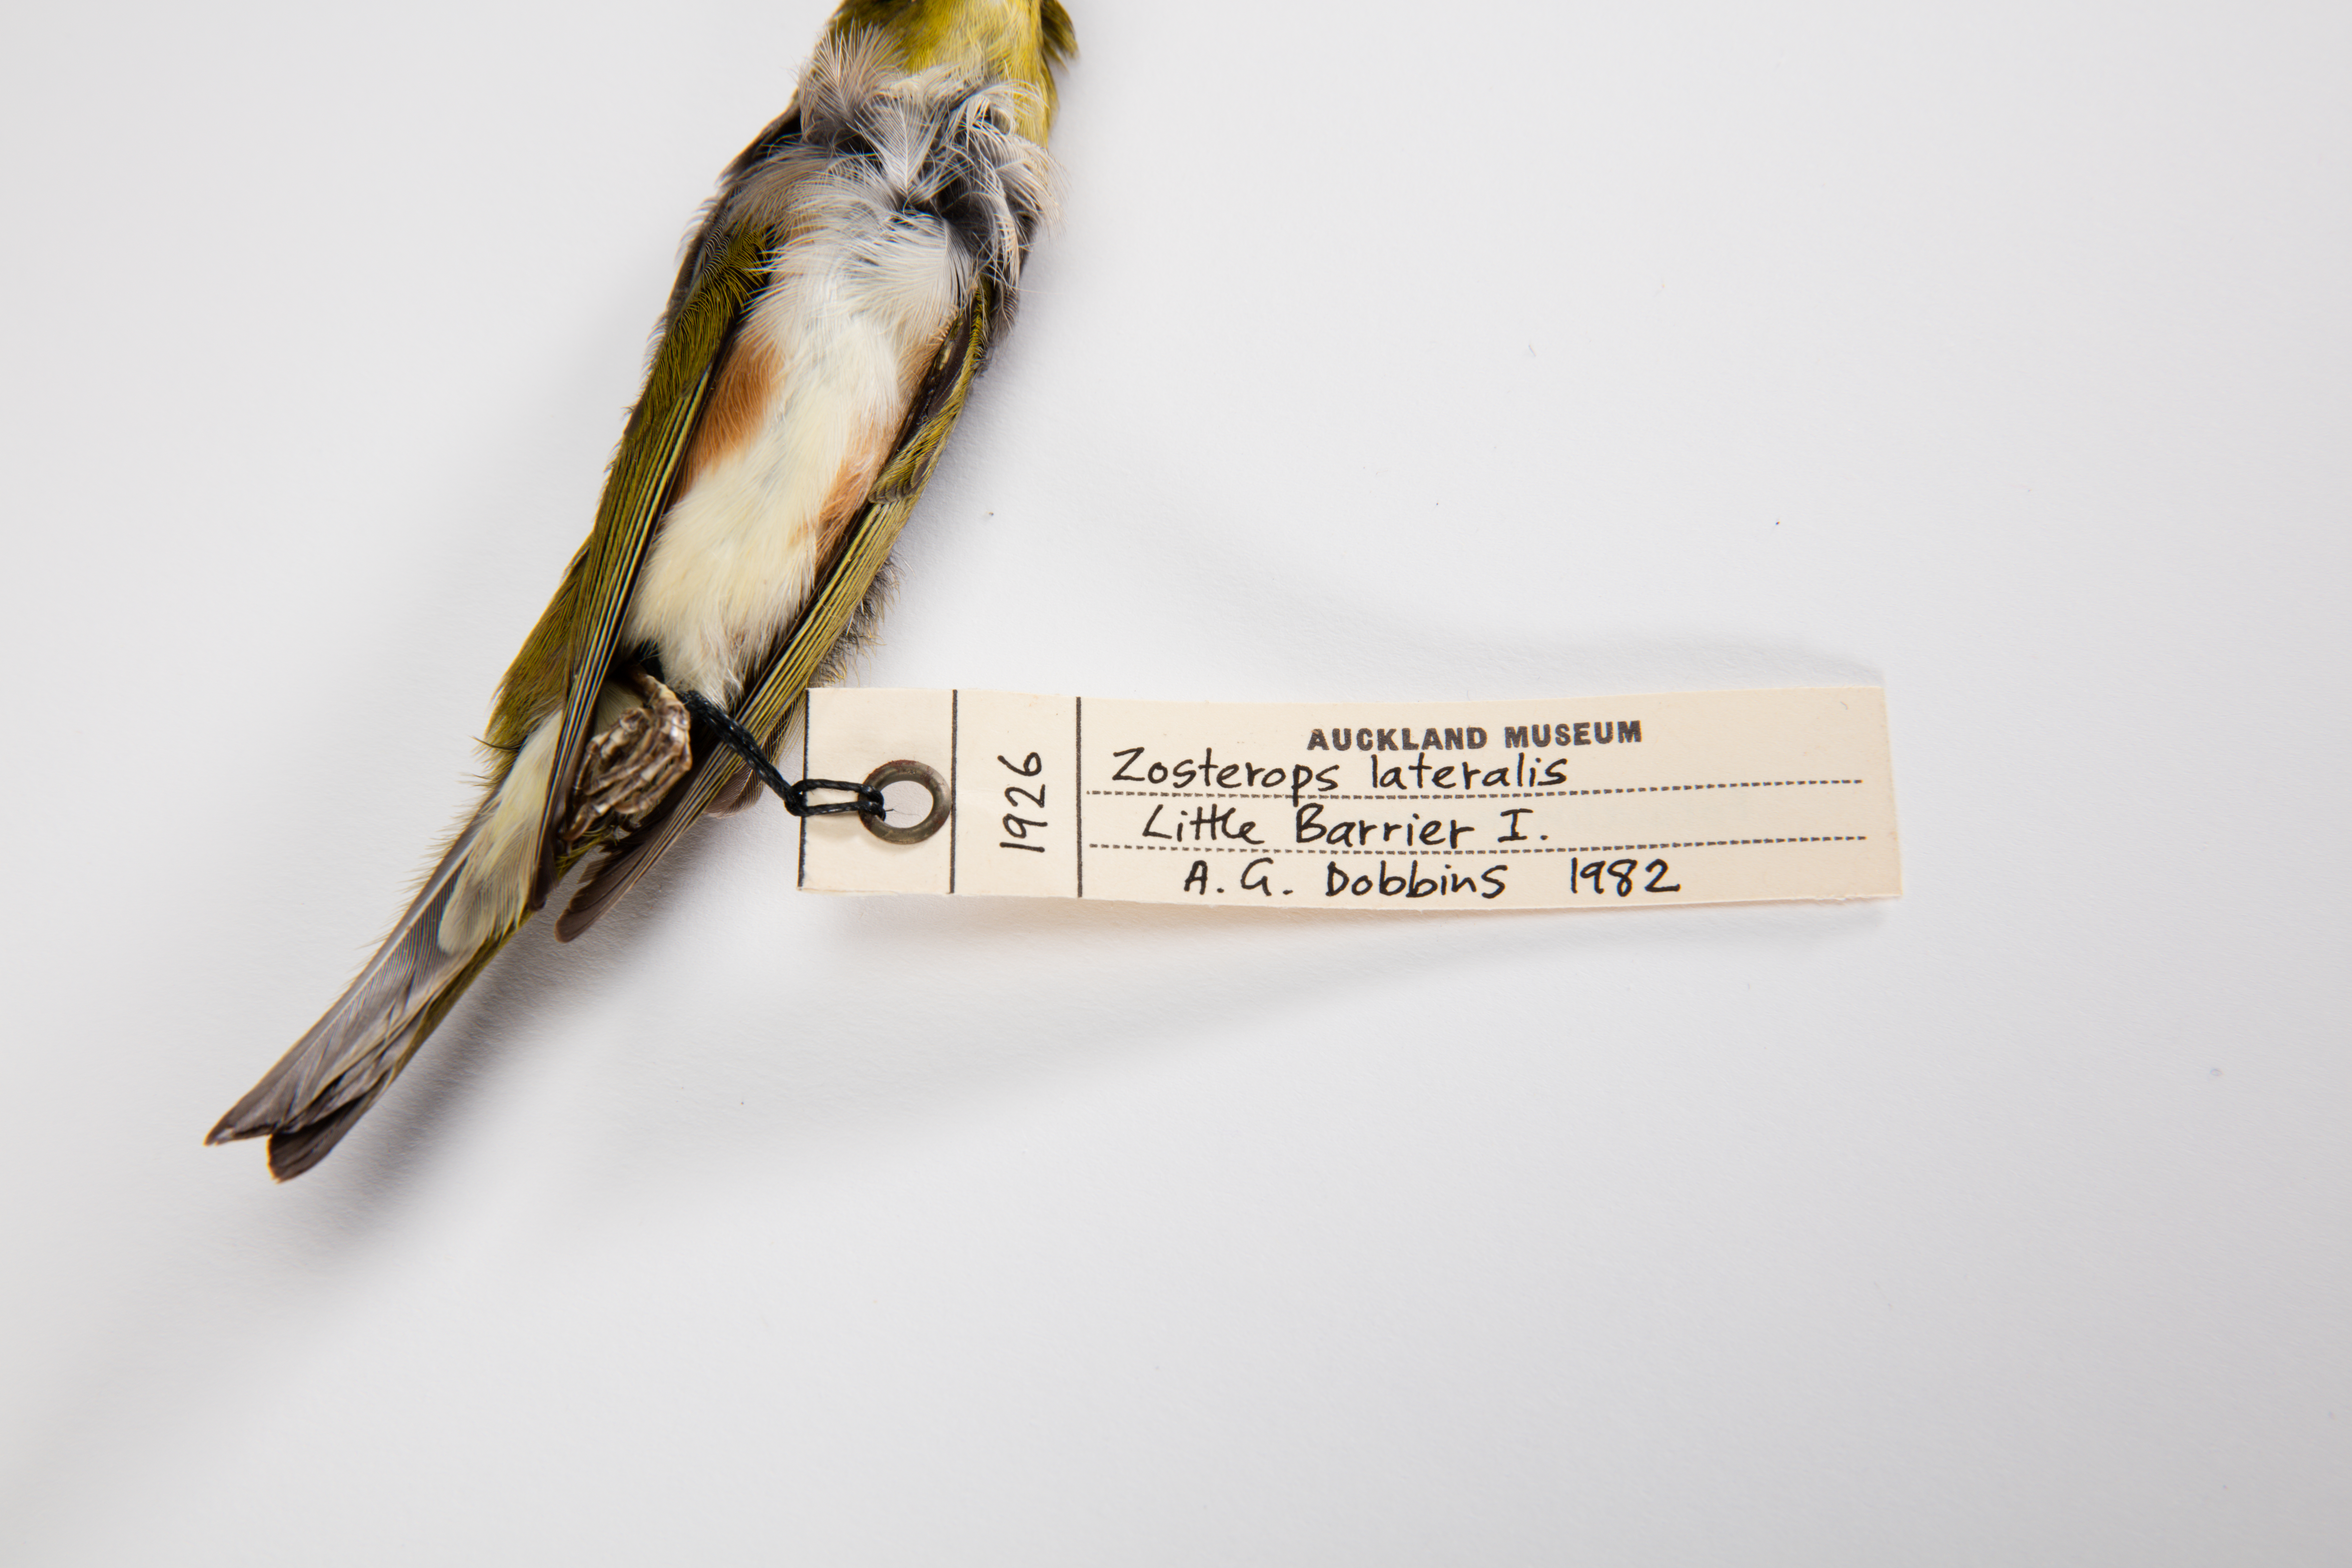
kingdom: Animalia
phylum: Chordata
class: Aves
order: Passeriformes
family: Zosteropidae
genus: Zosterops
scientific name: Zosterops lateralis
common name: Silvereye
